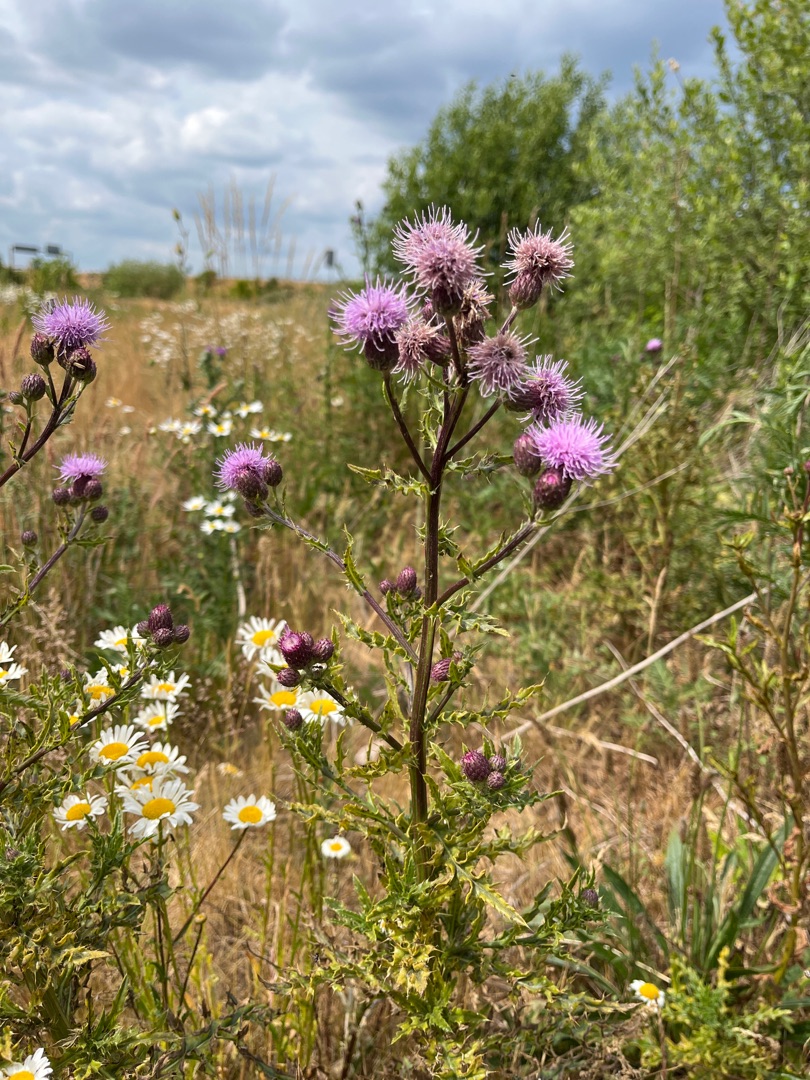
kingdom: Plantae
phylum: Tracheophyta
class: Magnoliopsida
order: Asterales
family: Asteraceae
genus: Cirsium
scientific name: Cirsium arvense
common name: Ager-tidsel
